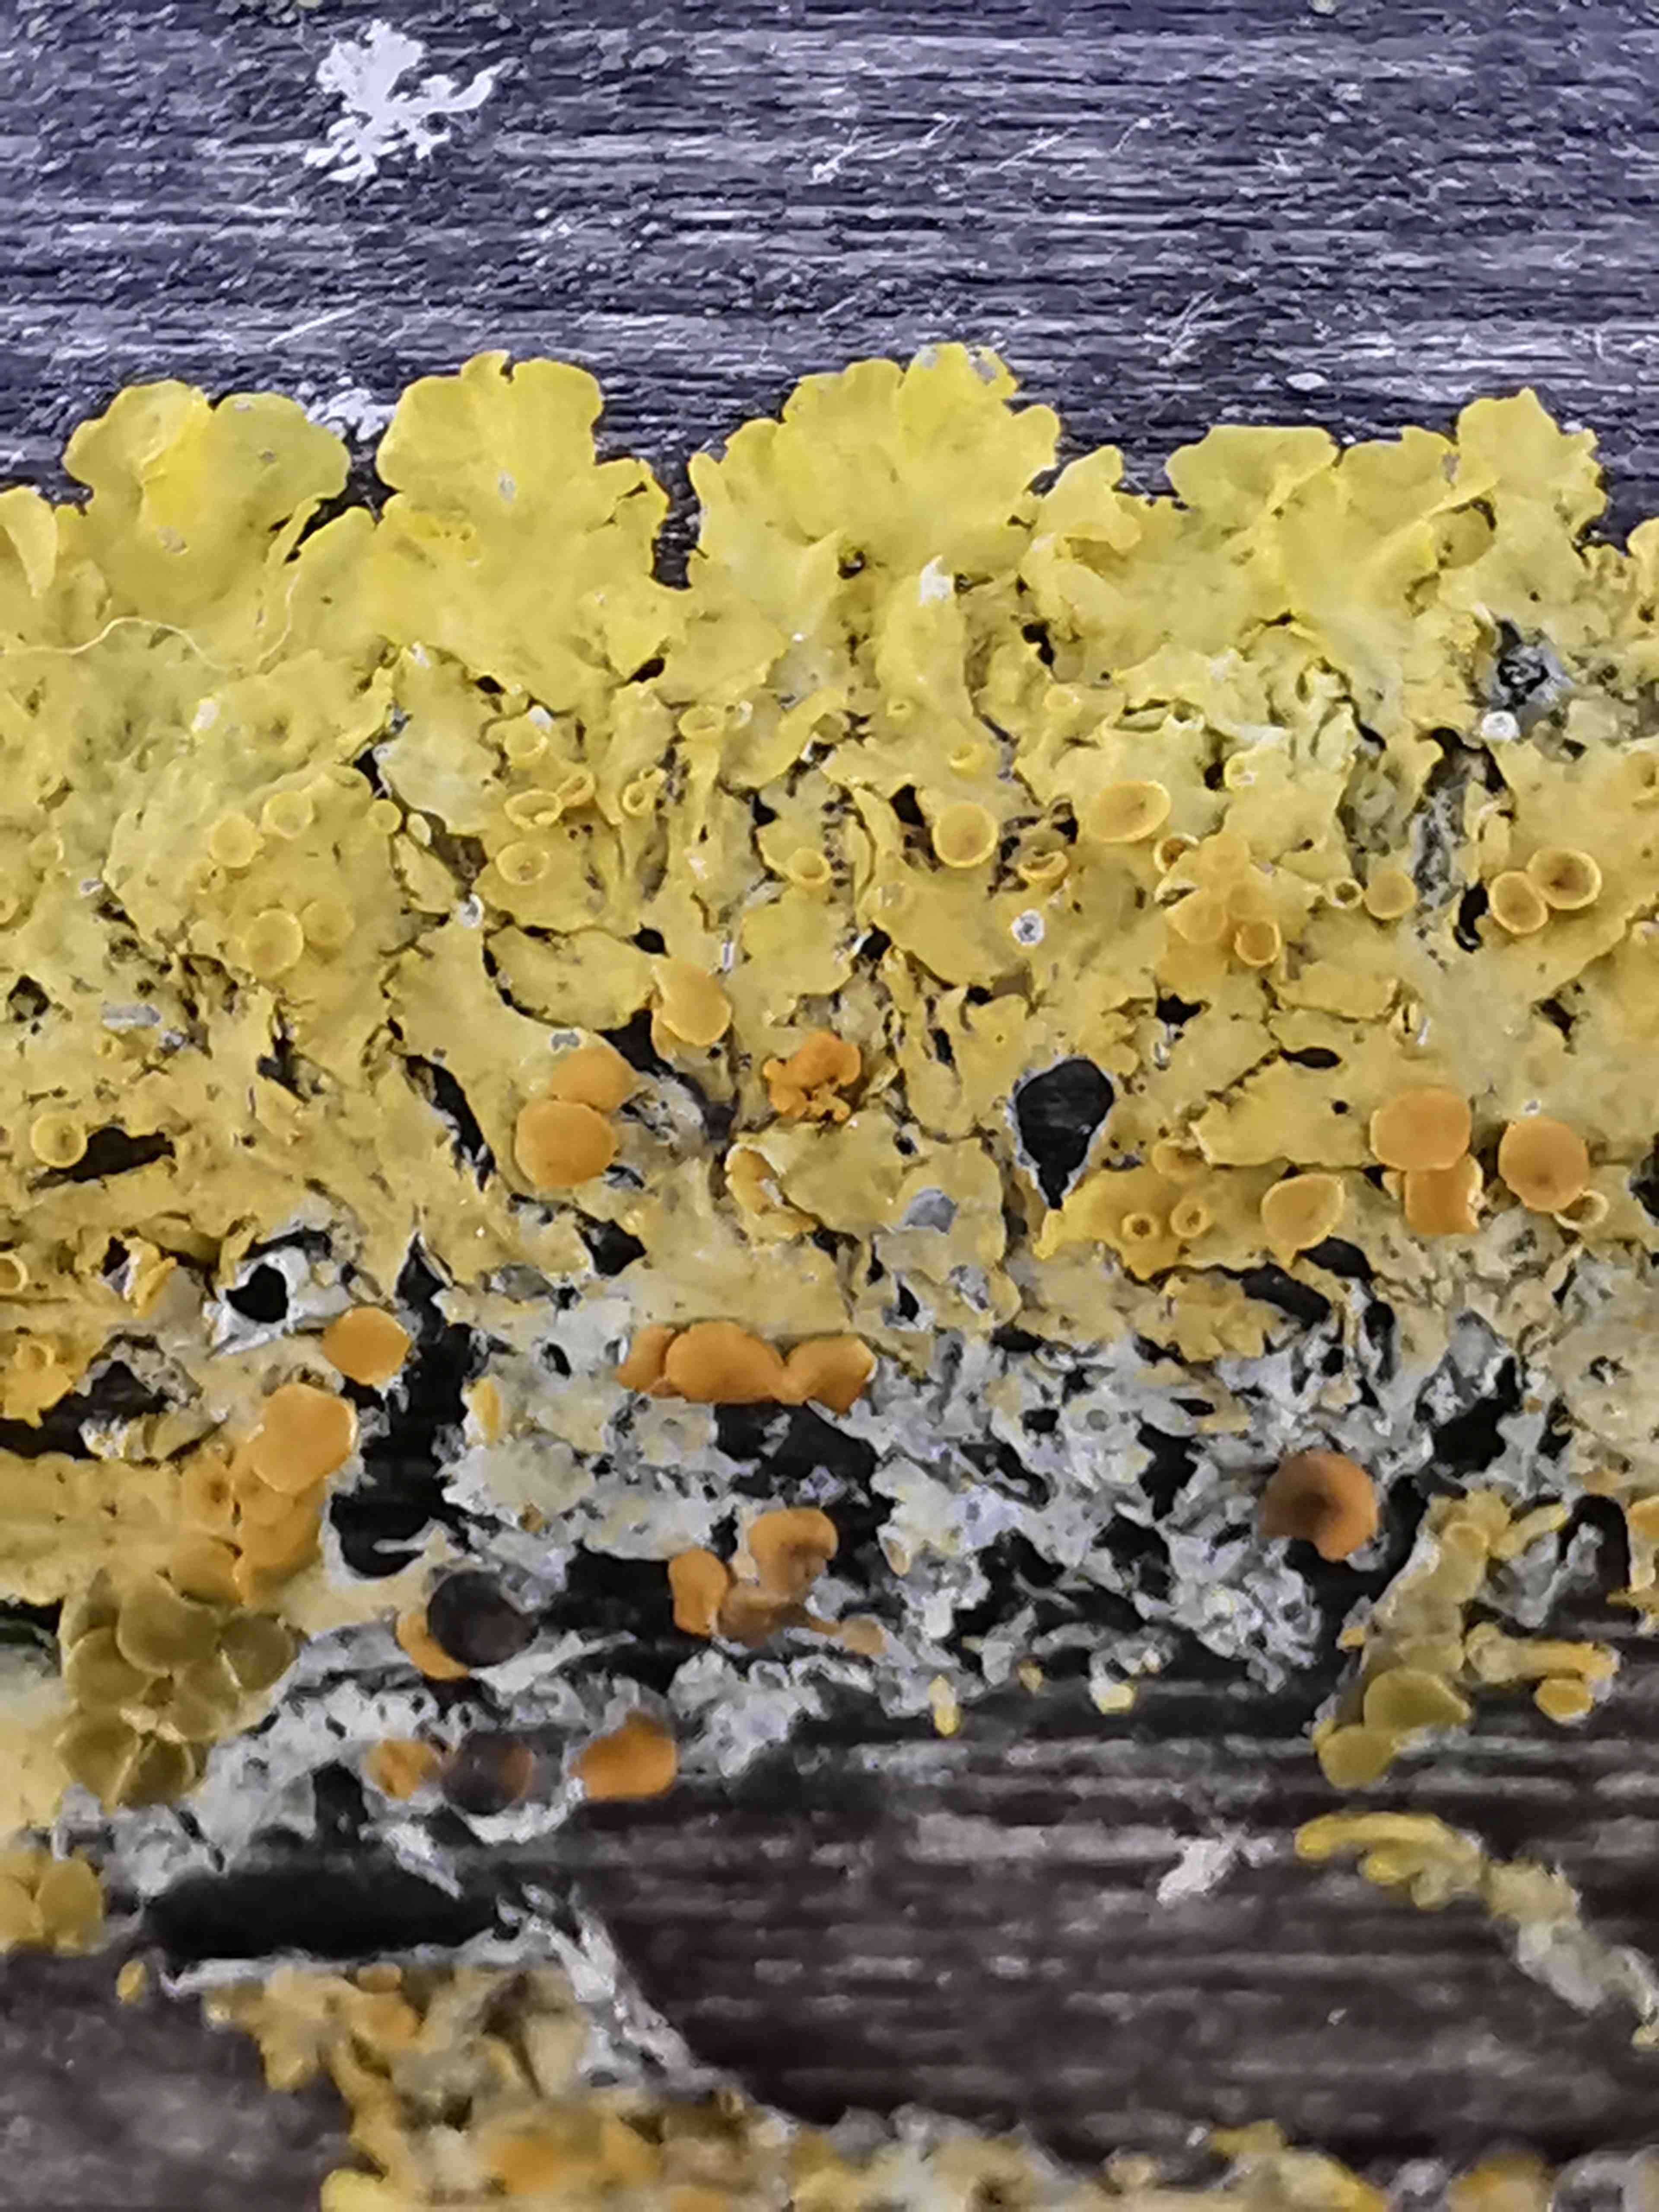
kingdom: Fungi
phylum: Ascomycota
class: Lecanoromycetes
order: Teloschistales
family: Teloschistaceae
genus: Xanthoria
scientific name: Xanthoria parietina
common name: almindelig væggelav
